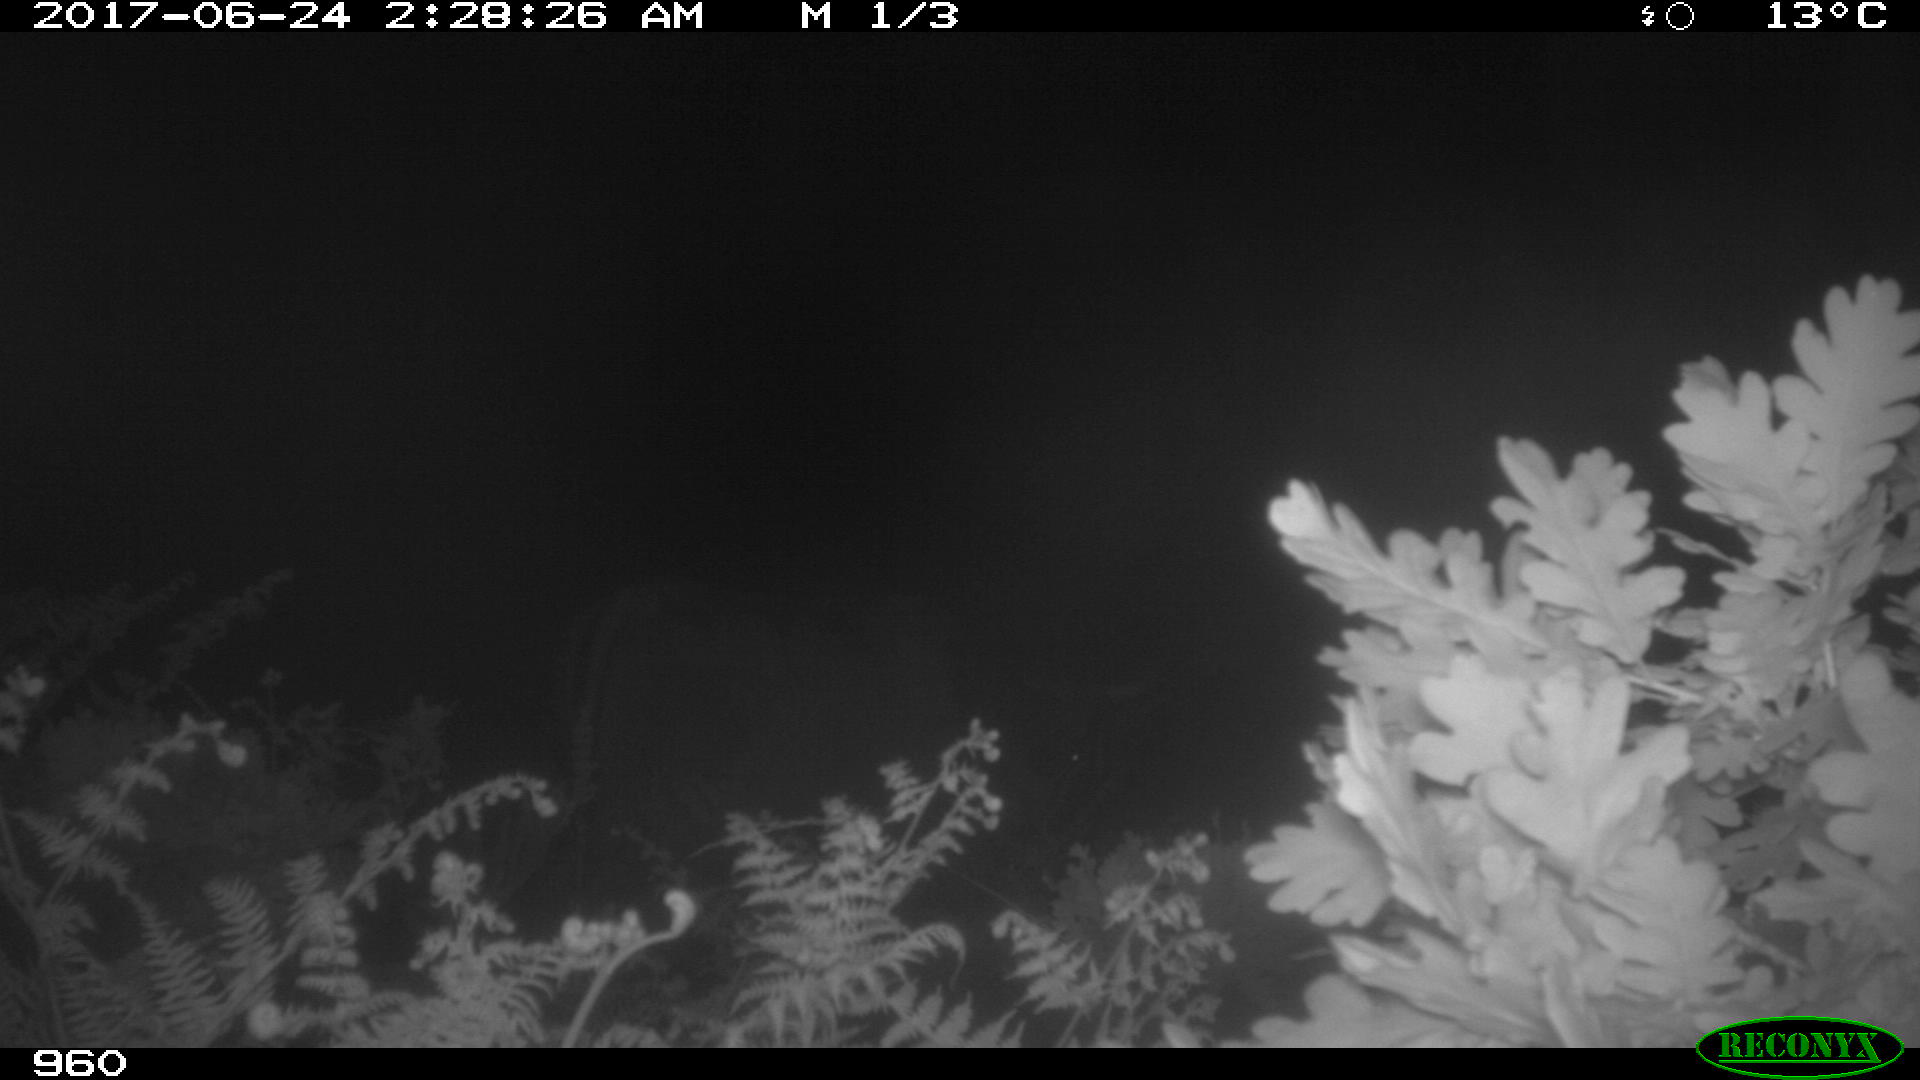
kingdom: Animalia
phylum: Chordata
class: Mammalia
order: Artiodactyla
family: Bovidae
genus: Bos
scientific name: Bos taurus
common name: Domesticated cattle
